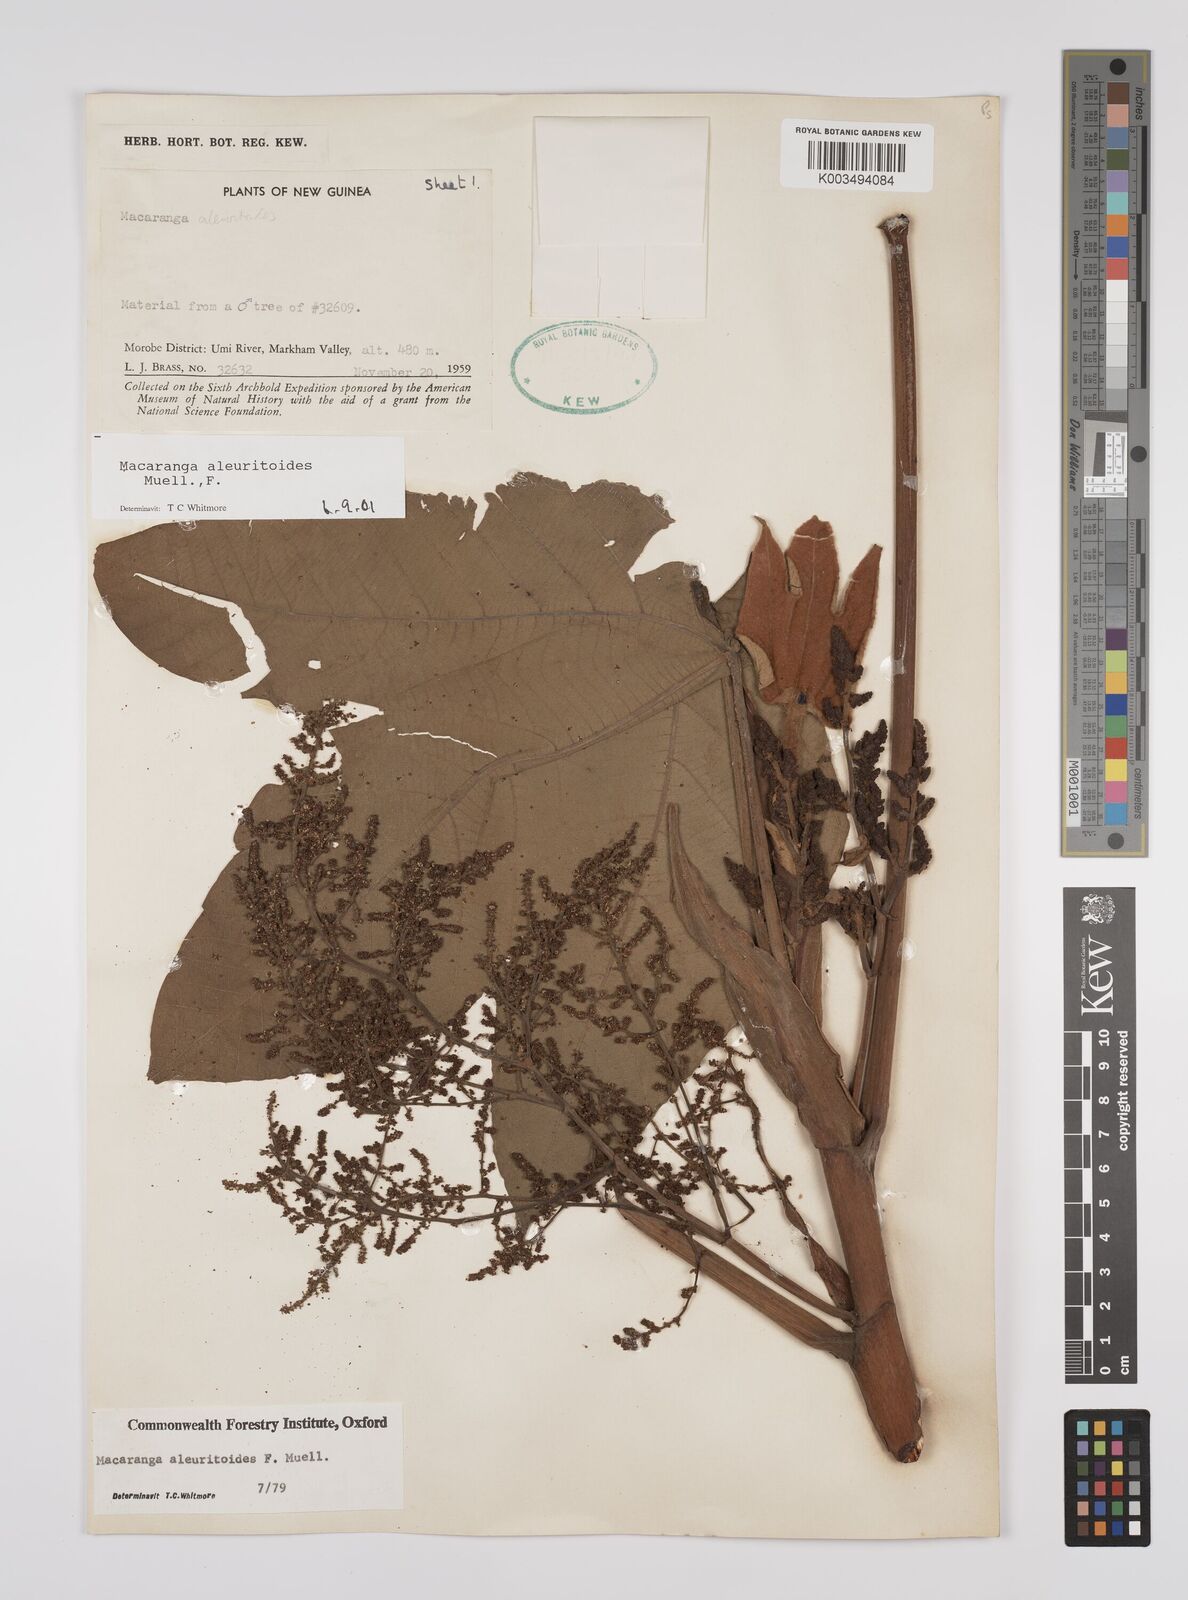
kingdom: Plantae
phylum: Tracheophyta
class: Magnoliopsida
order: Malpighiales
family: Euphorbiaceae
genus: Macaranga
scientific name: Macaranga aleuritoides
